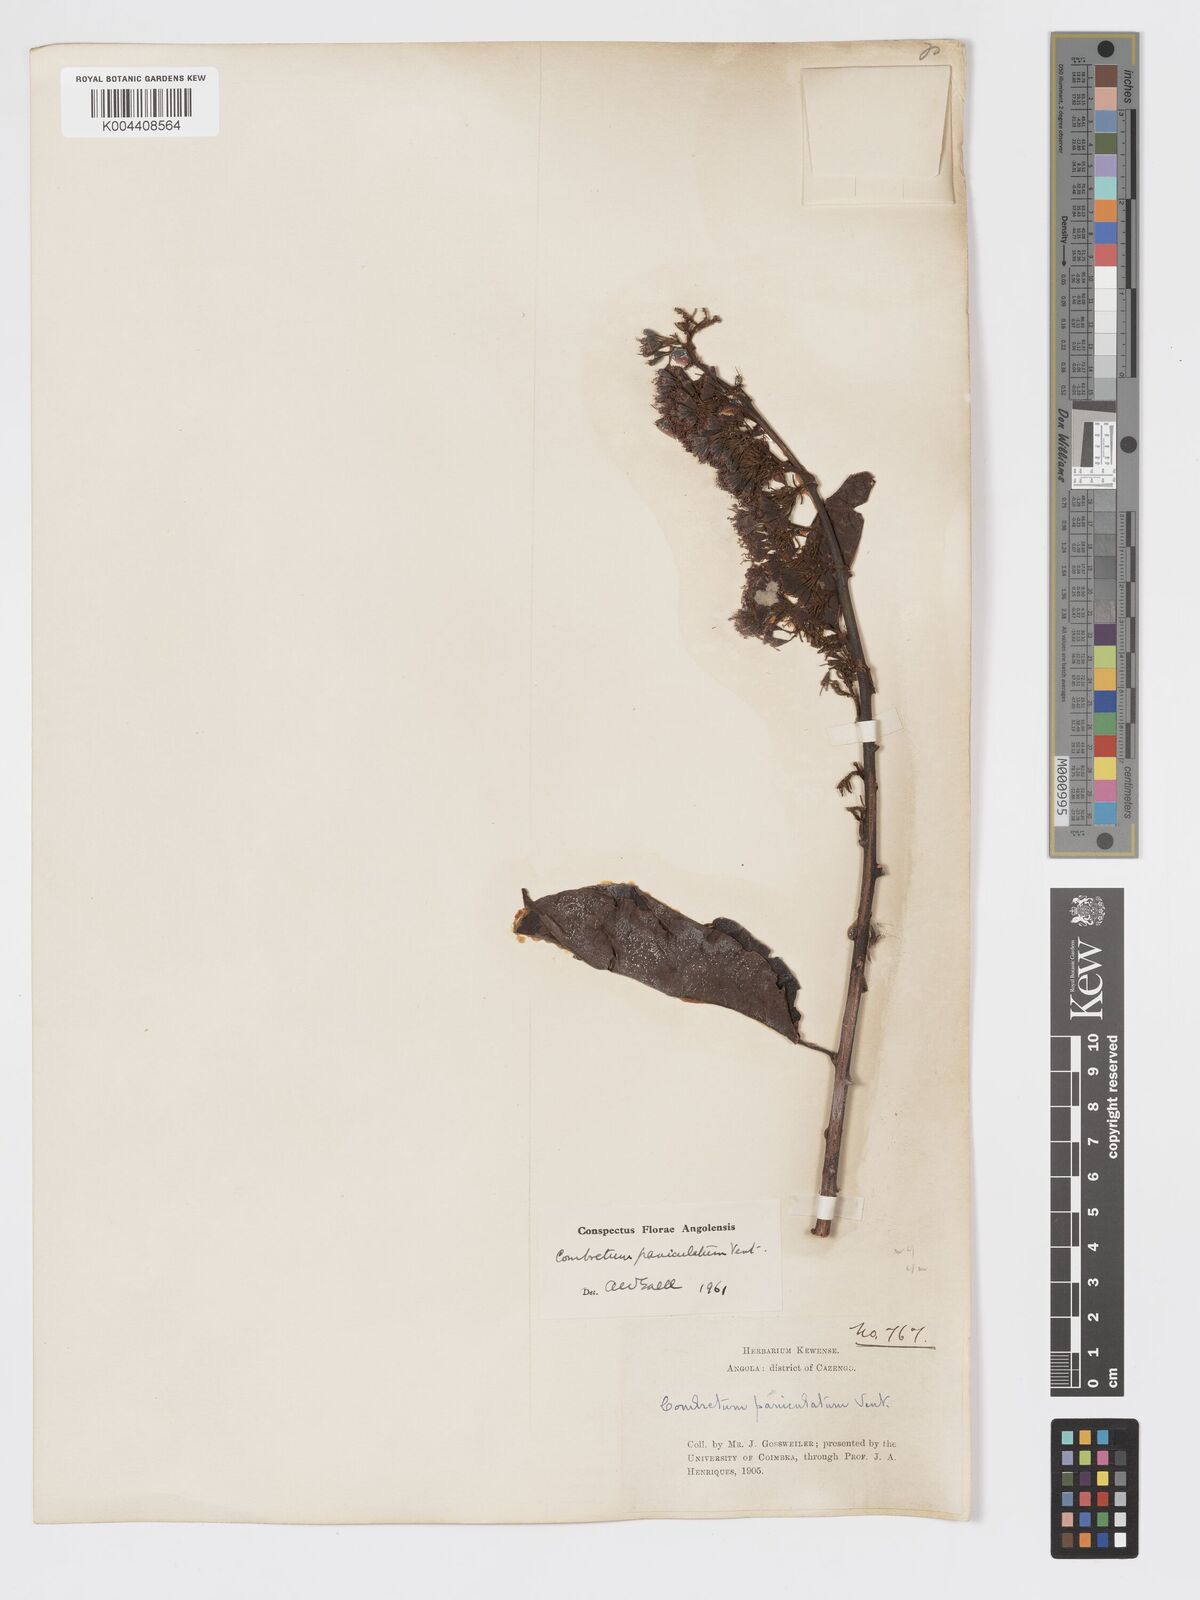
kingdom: Plantae
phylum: Tracheophyta
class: Magnoliopsida
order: Myrtales
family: Combretaceae
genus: Combretum
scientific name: Combretum paniculatum
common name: Fire vine
